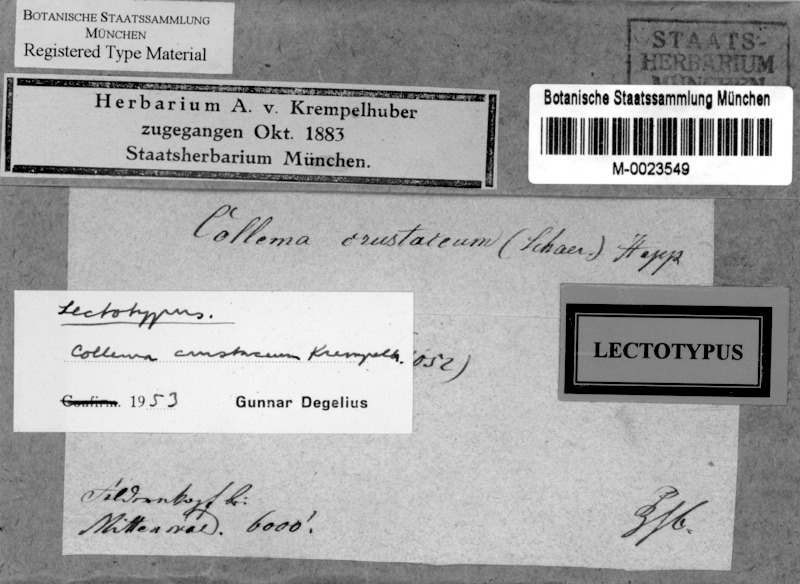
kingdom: Fungi
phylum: Ascomycota
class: Lecanoromycetes
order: Peltigerales
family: Collemataceae
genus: Enchylium
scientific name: Enchylium tenax
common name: Jelly lichen
